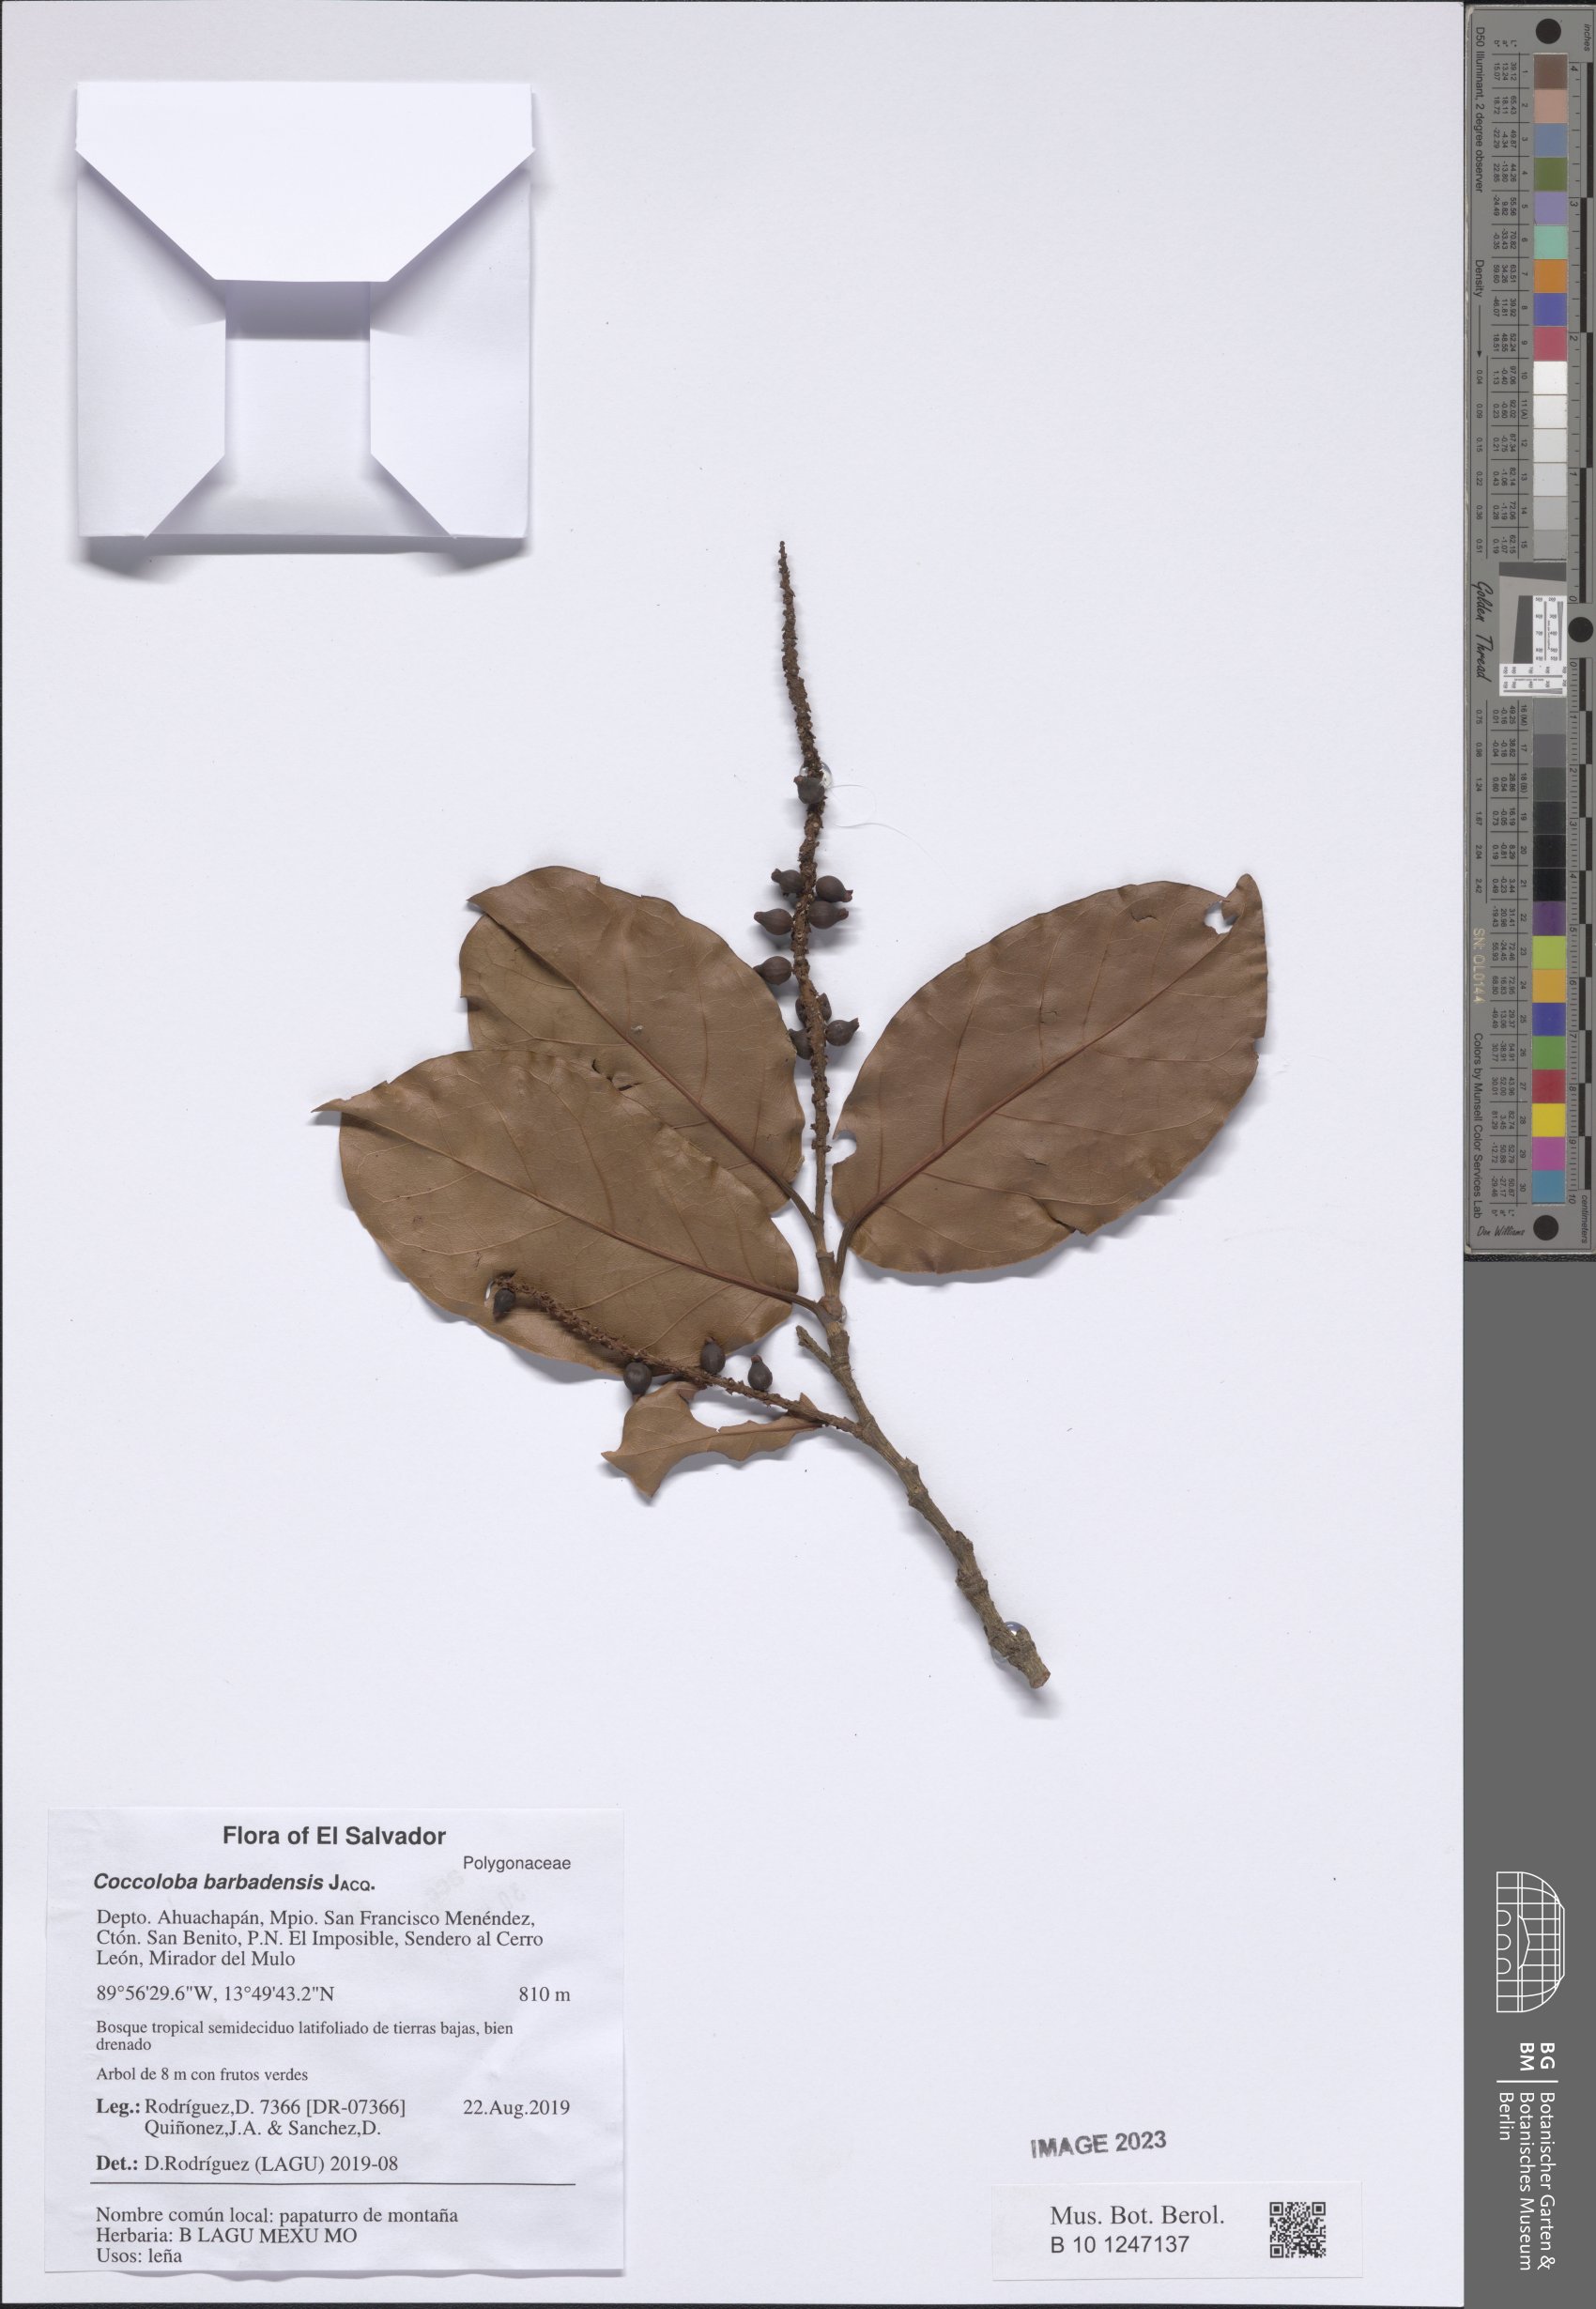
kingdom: Plantae
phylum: Tracheophyta
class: Magnoliopsida
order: Caryophyllales
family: Polygonaceae
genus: Coccoloba
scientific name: Coccoloba barbadensis
